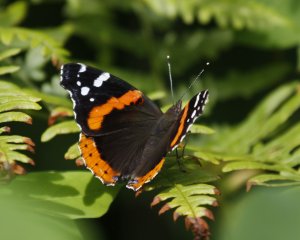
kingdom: Animalia
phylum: Arthropoda
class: Insecta
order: Lepidoptera
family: Nymphalidae
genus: Vanessa
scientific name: Vanessa atalanta
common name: Red Admiral
